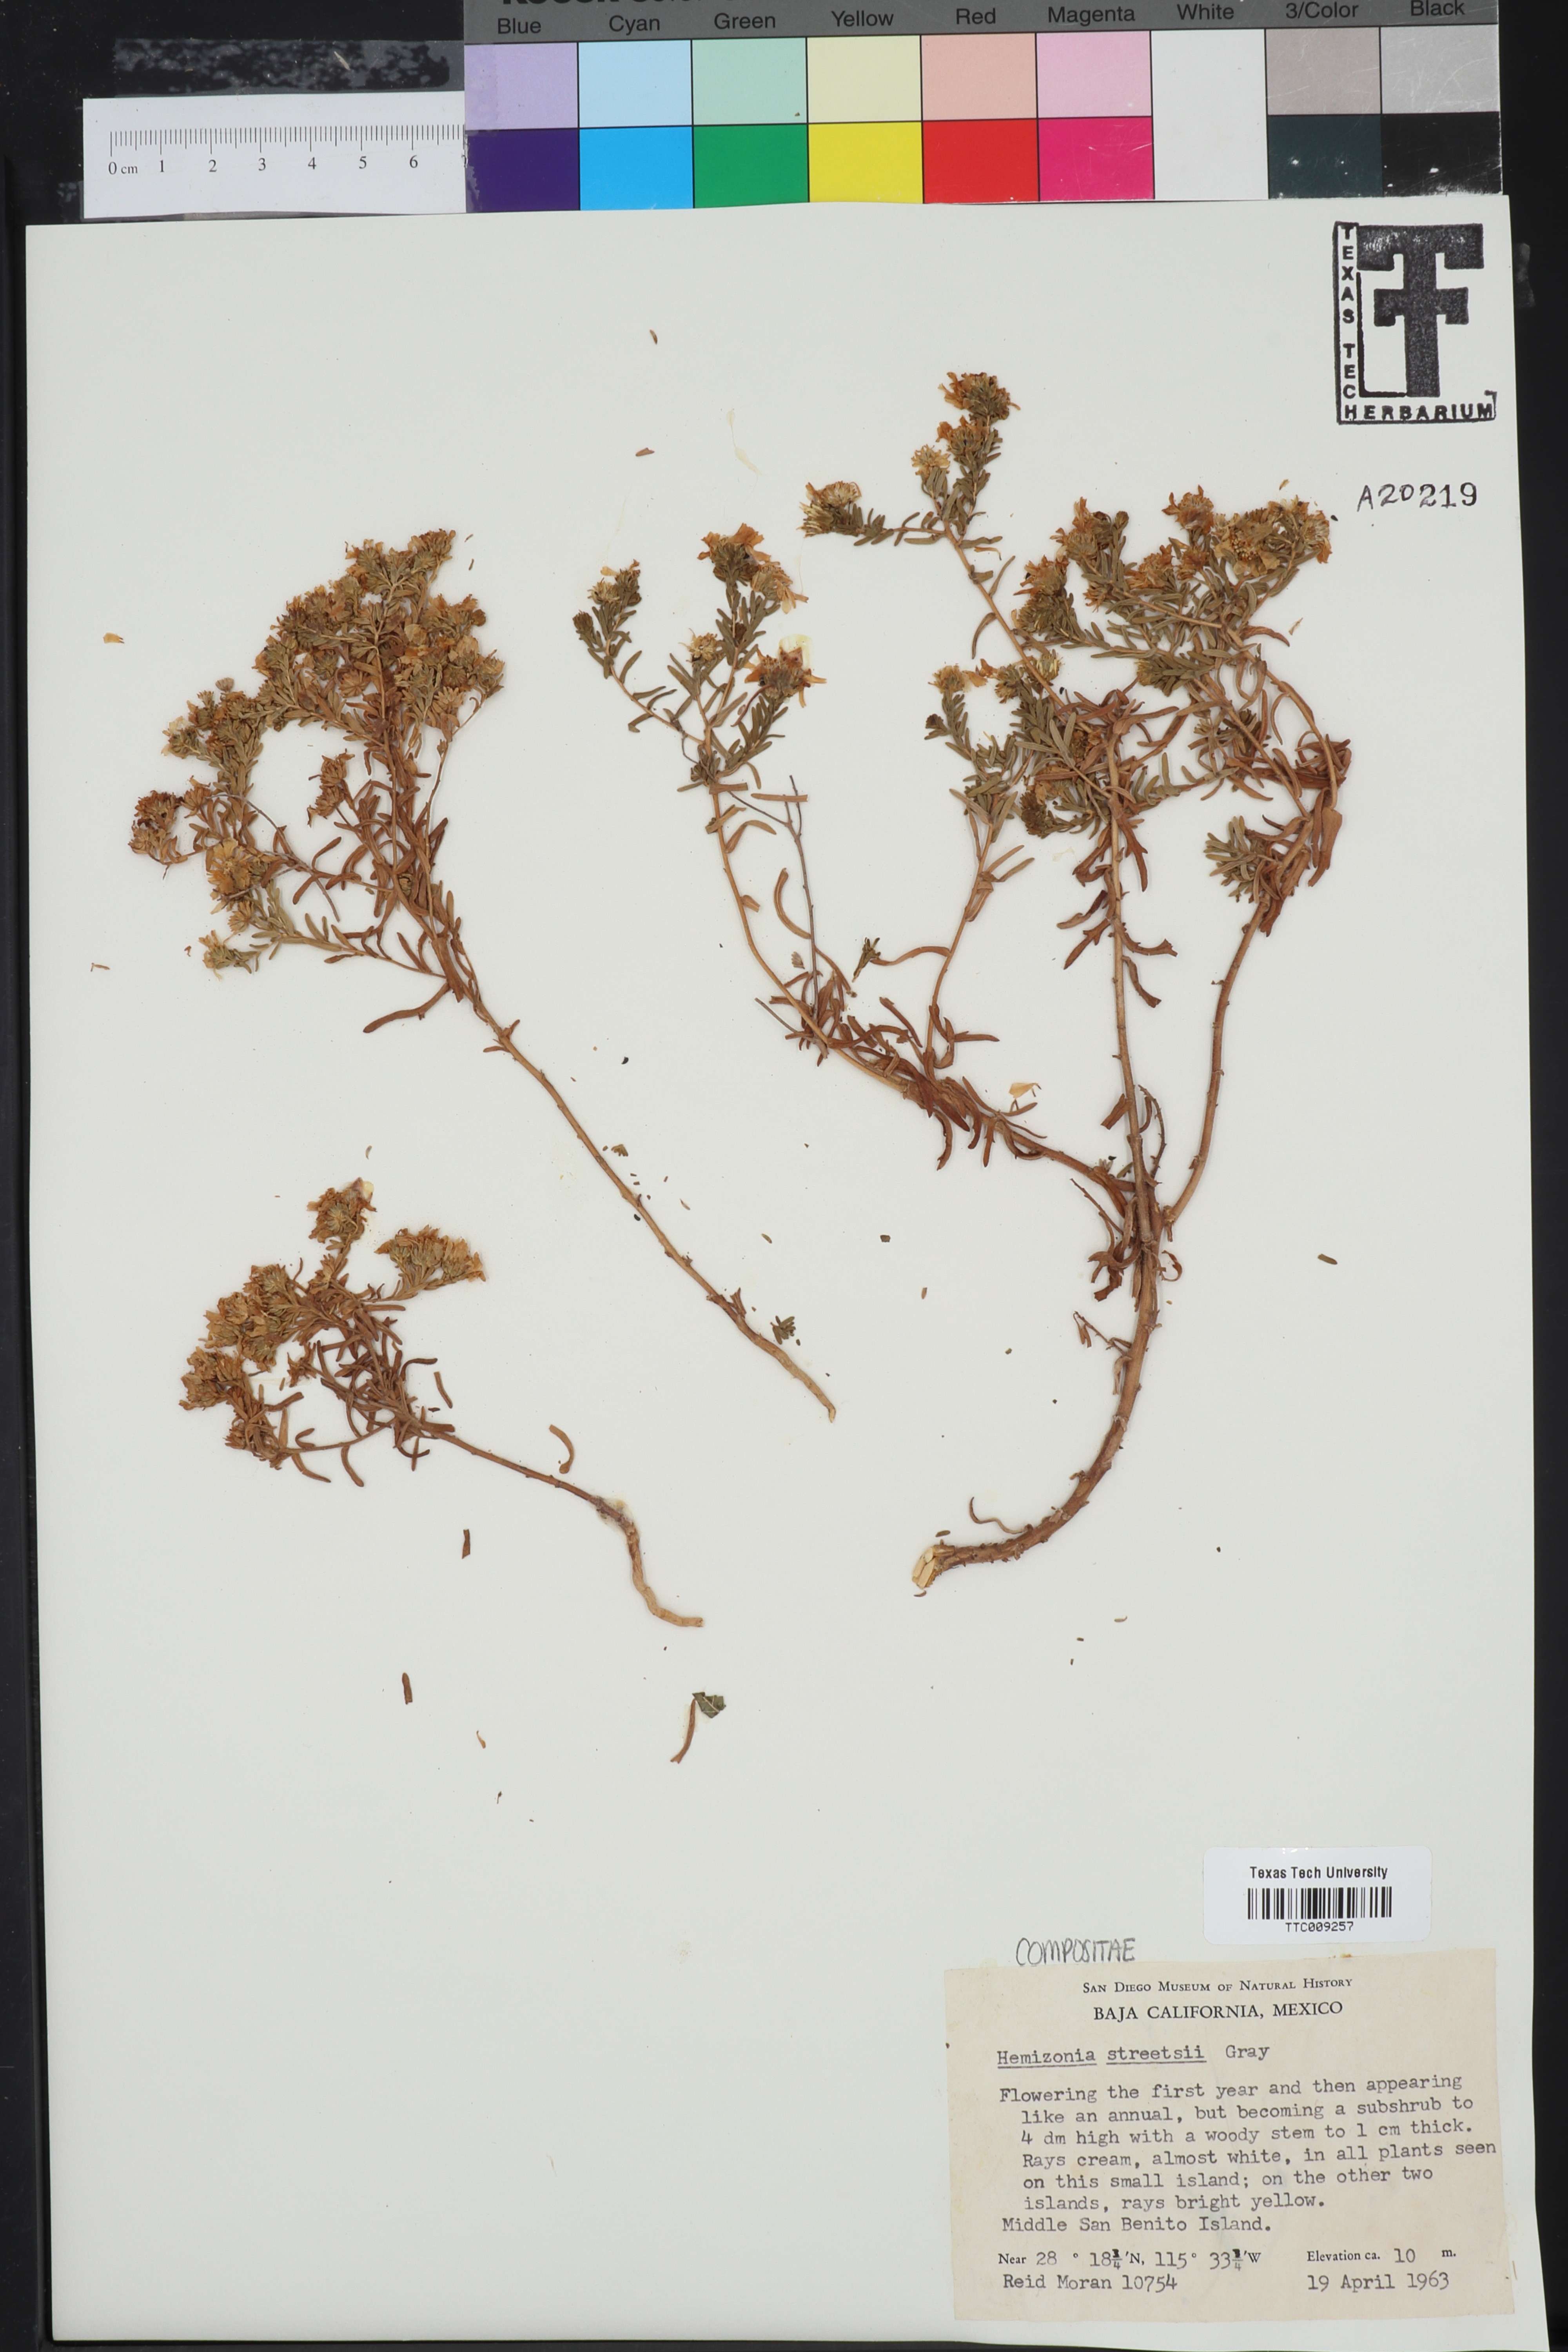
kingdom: Plantae
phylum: Tracheophyta
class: Magnoliopsida
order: Asterales
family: Asteraceae
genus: Deinandra
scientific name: Deinandra streetsii
